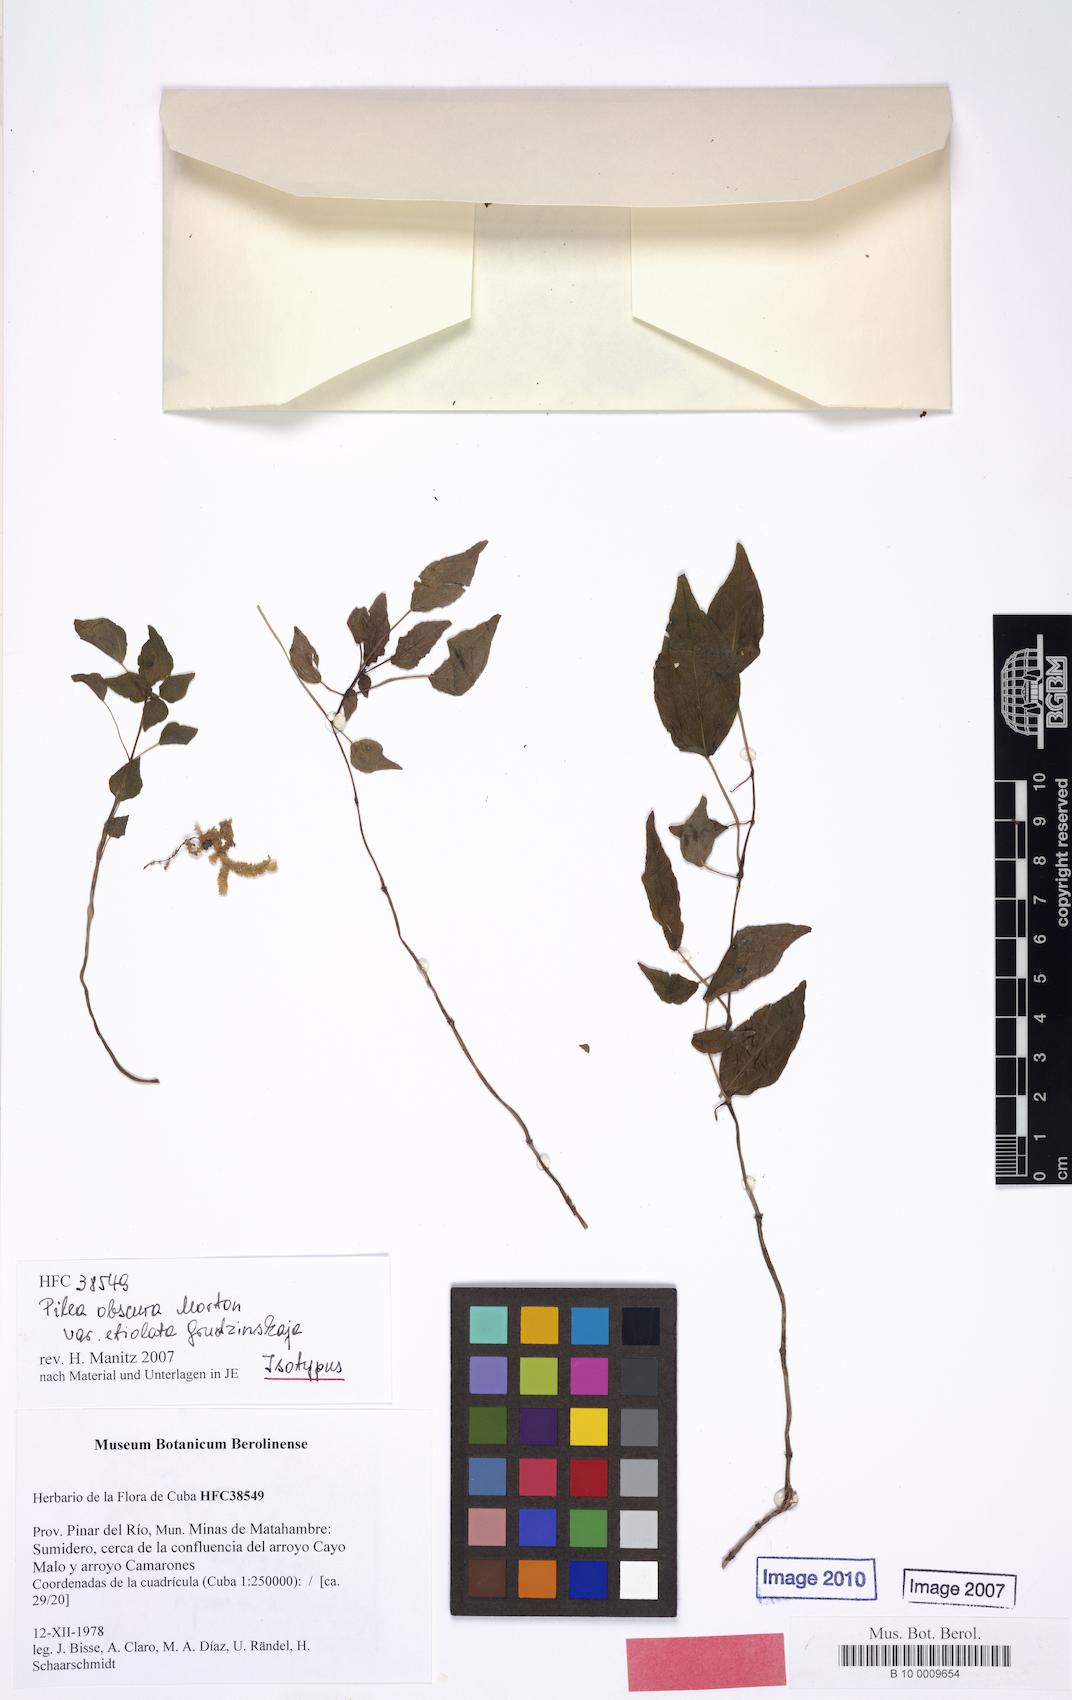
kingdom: Plantae
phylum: Tracheophyta
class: Magnoliopsida
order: Rosales
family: Urticaceae
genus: Pilea
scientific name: Pilea obscura
